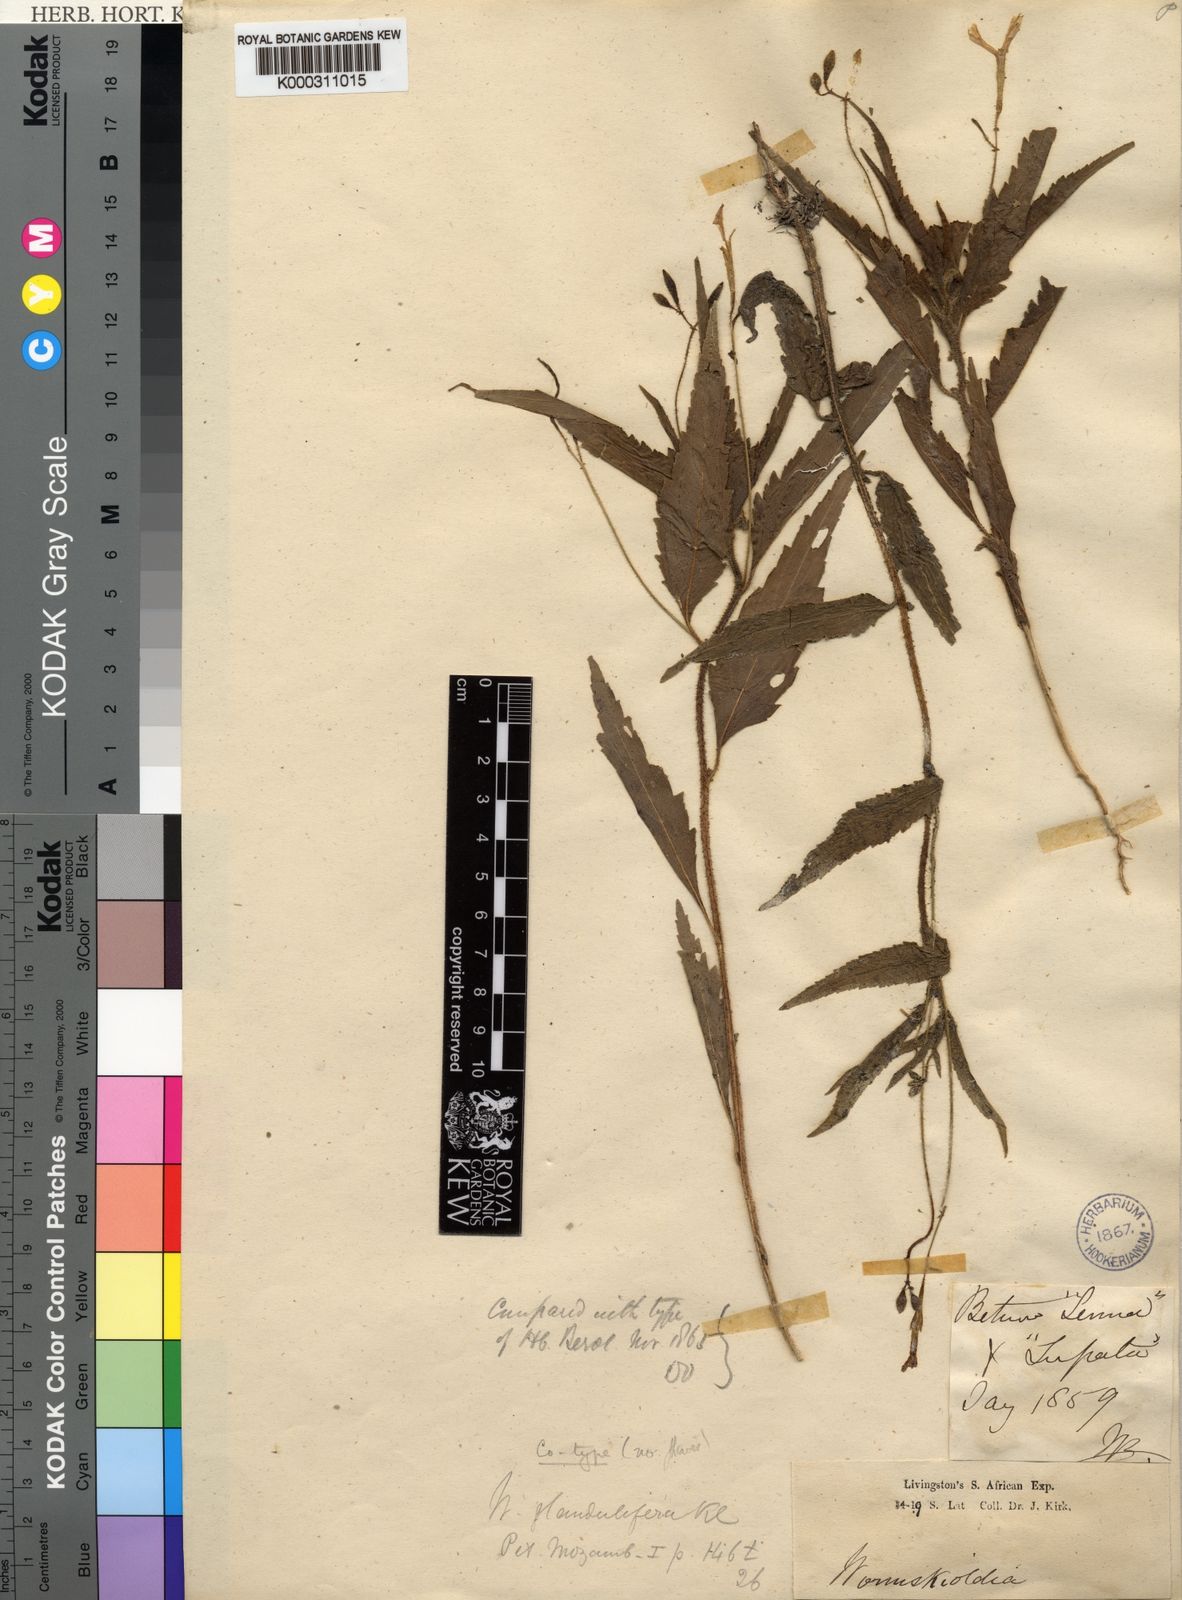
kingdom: Plantae
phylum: Tracheophyta
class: Magnoliopsida
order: Malpighiales
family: Turneraceae
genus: Tricliceras
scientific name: Tricliceras glanduliferum
